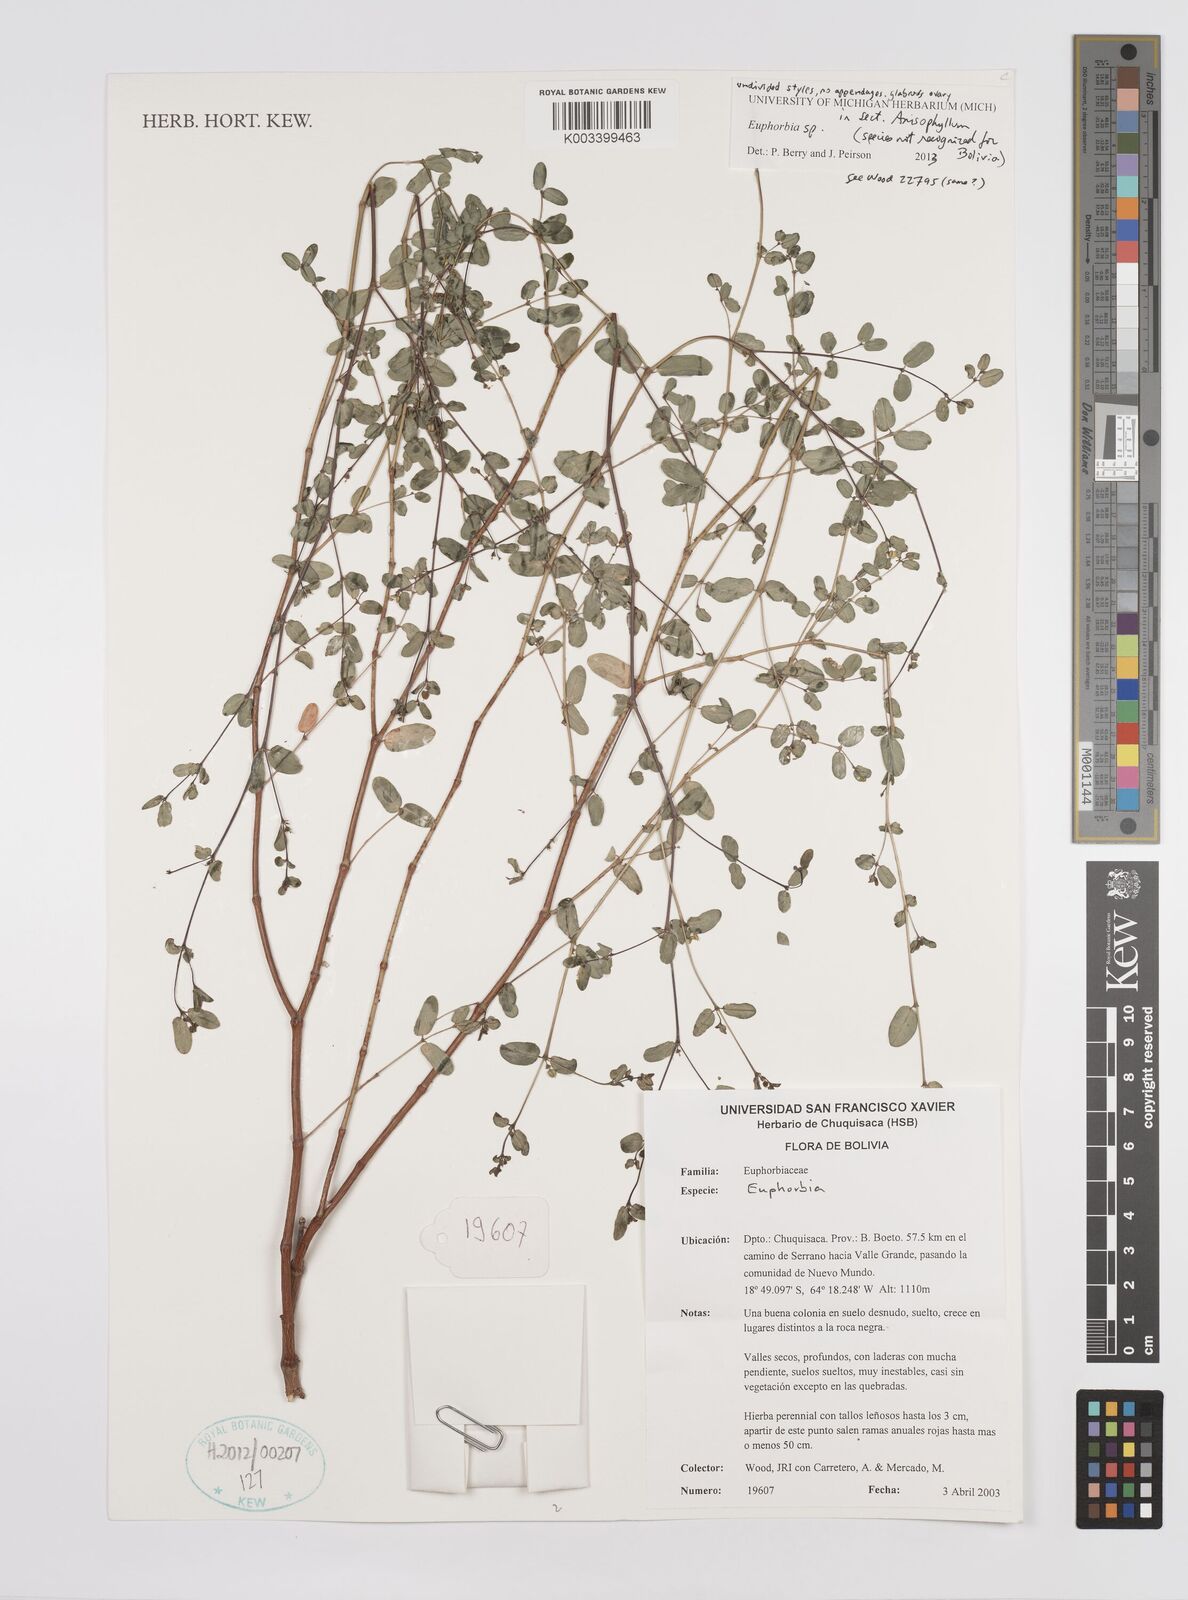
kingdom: Plantae
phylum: Tracheophyta
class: Magnoliopsida
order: Malpighiales
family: Euphorbiaceae
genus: Euphorbia
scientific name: Euphorbia
